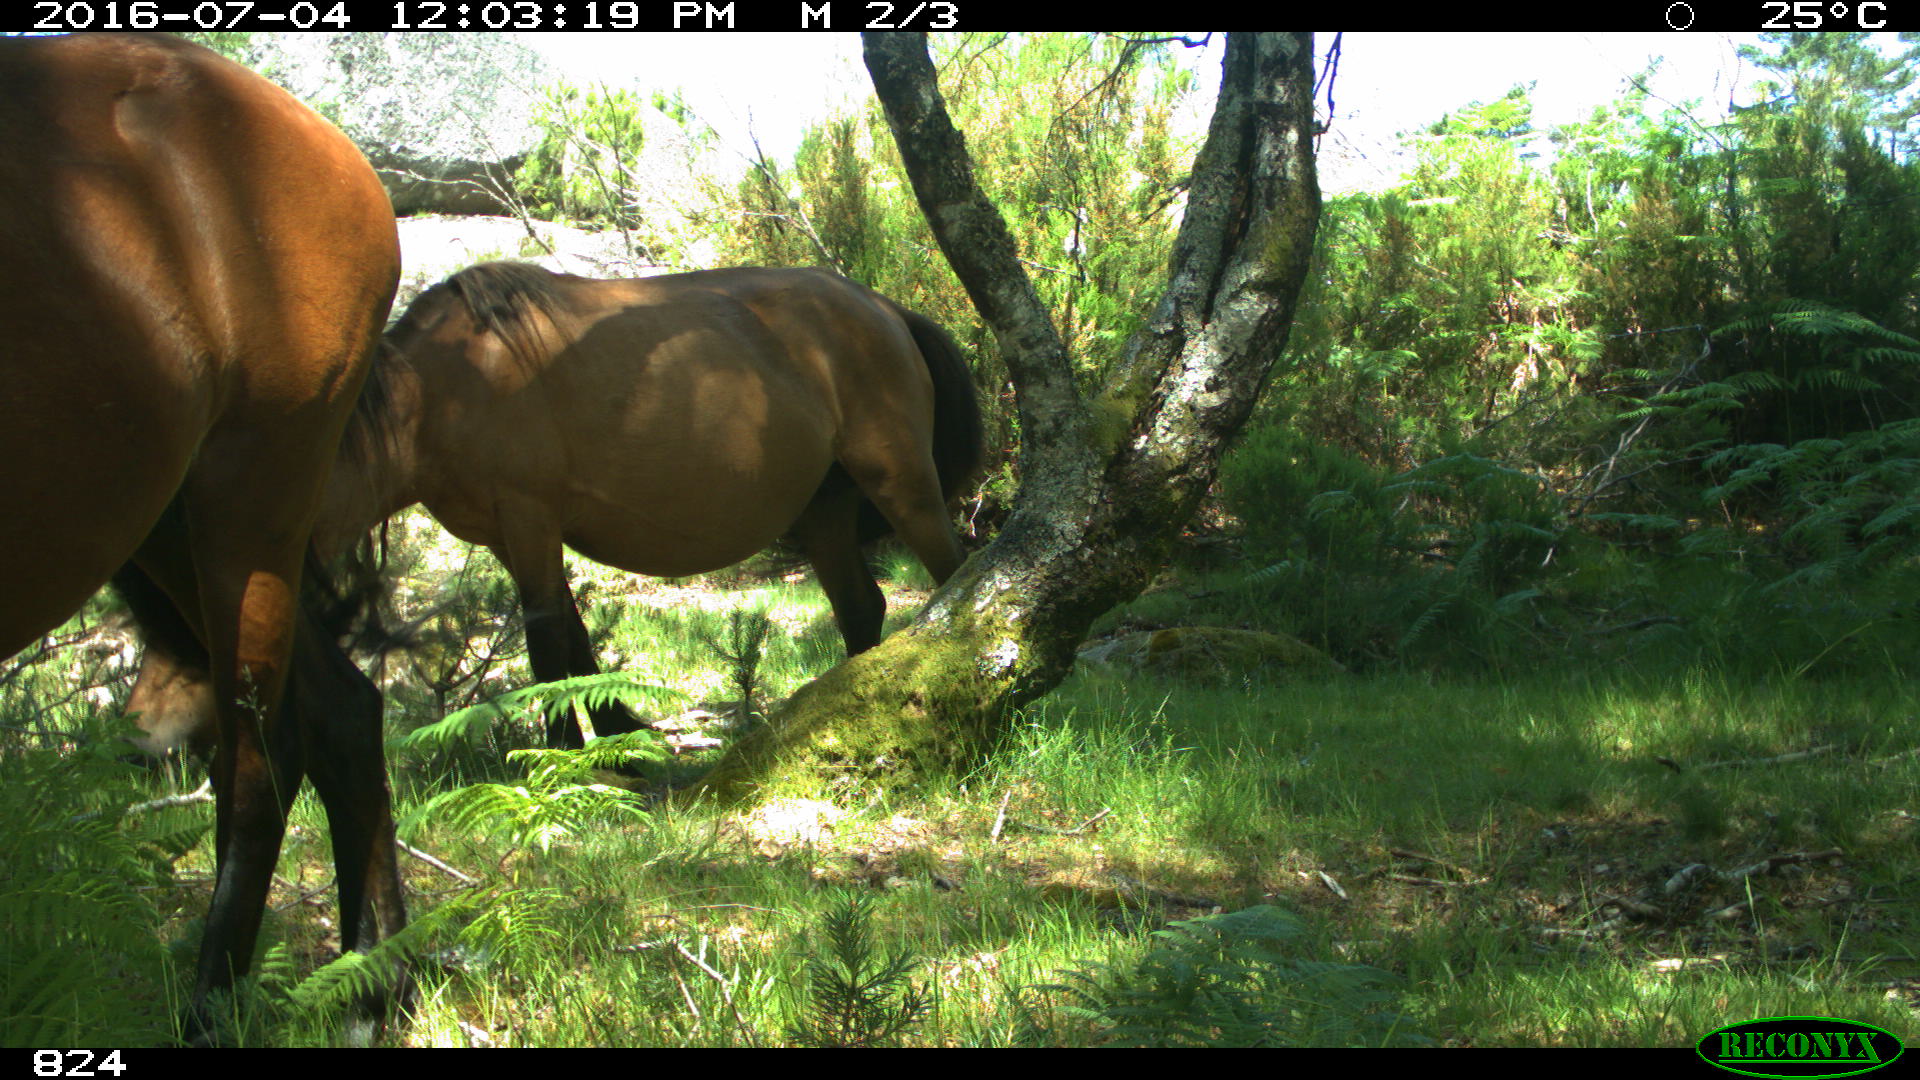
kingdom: Animalia
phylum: Chordata
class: Mammalia
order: Perissodactyla
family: Equidae
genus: Equus
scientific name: Equus caballus
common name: Horse
